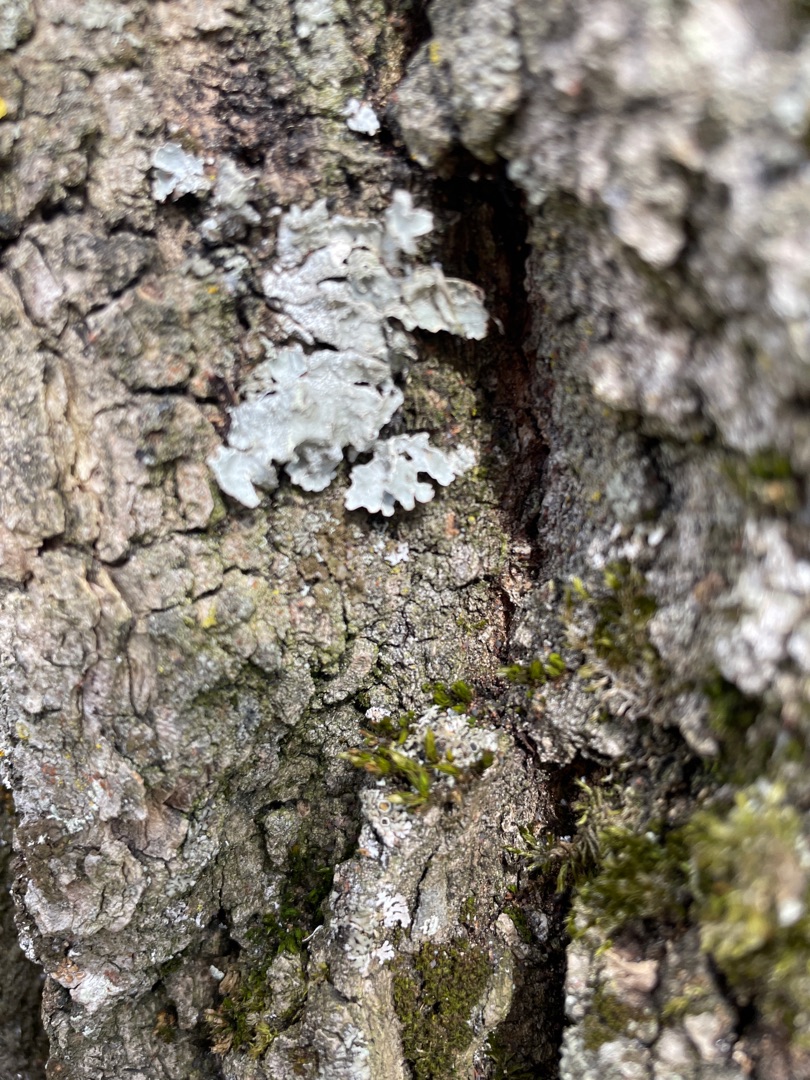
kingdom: Fungi
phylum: Ascomycota
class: Lecanoromycetes
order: Lecanorales
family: Parmeliaceae
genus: Parmelia
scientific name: Parmelia sulcata
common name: Rynket skållav
